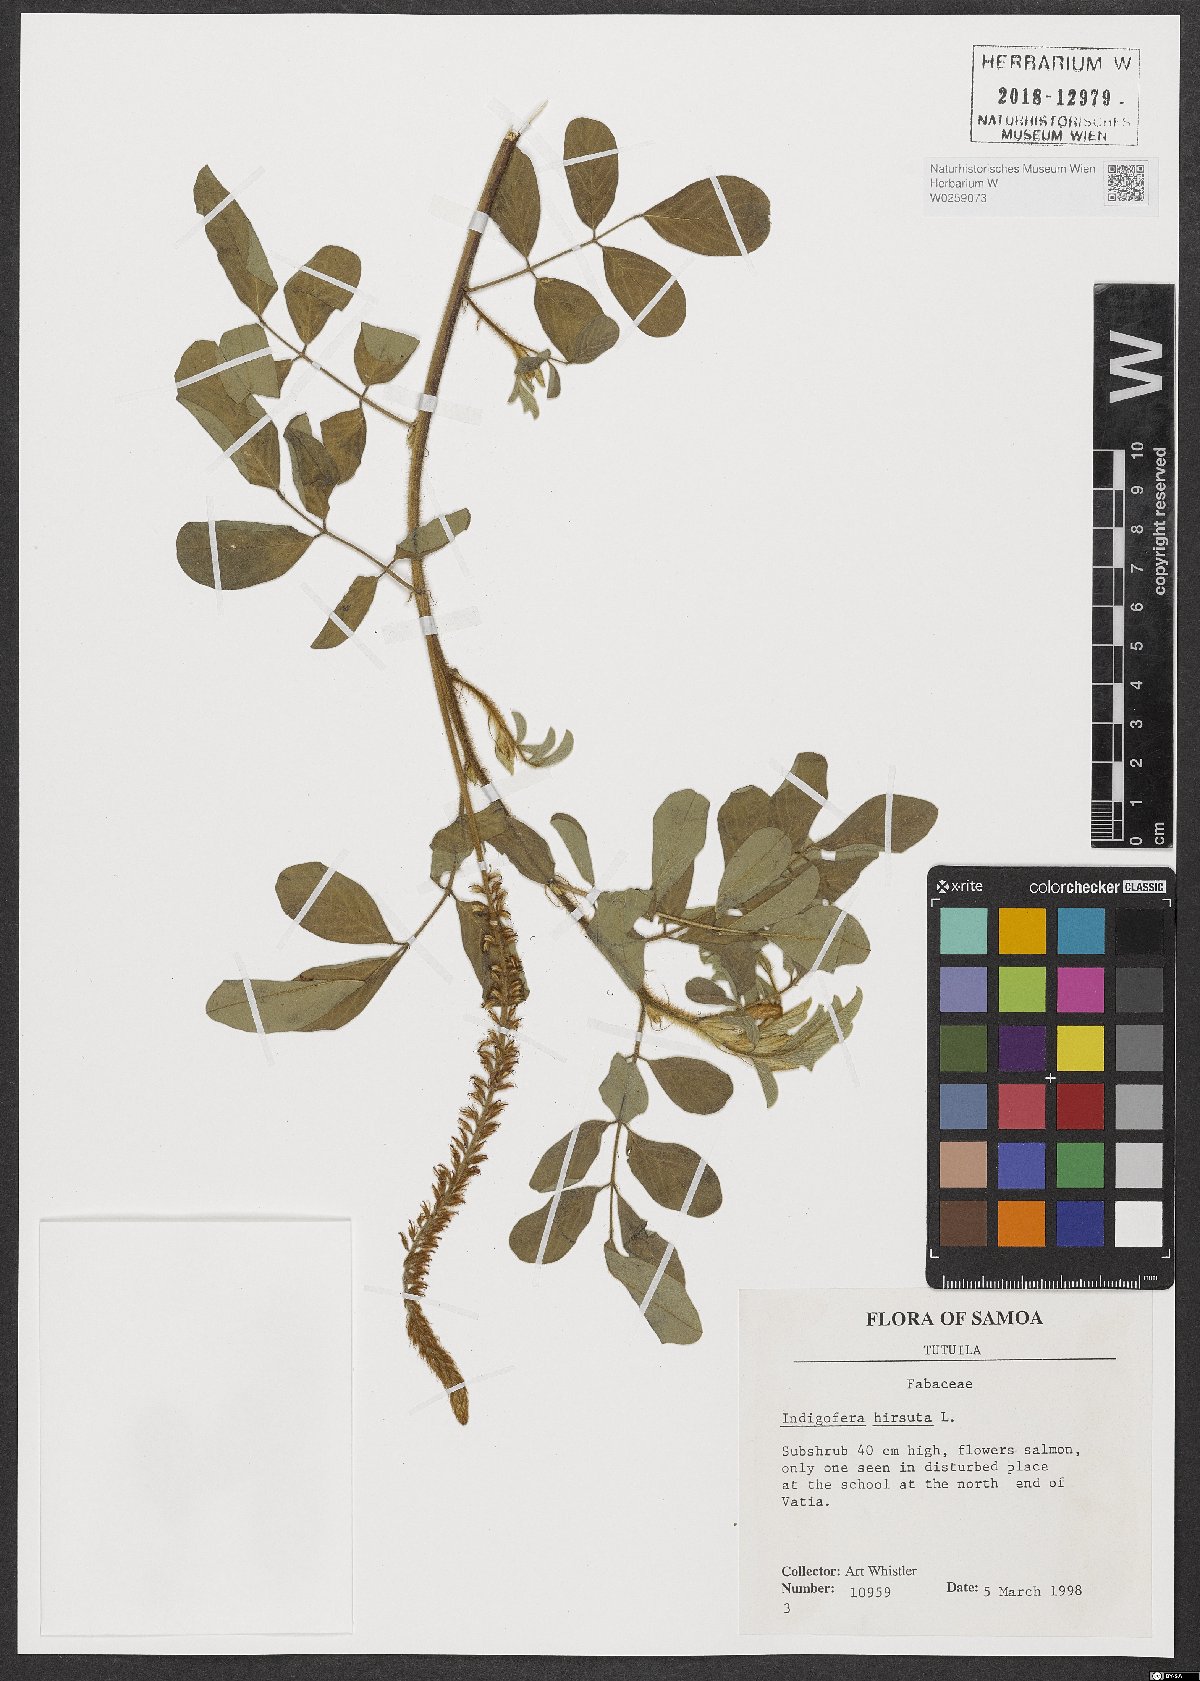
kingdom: Plantae
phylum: Tracheophyta
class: Magnoliopsida
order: Fabales
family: Fabaceae
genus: Indigofera
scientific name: Indigofera hirsuta
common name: Hairy indigo
